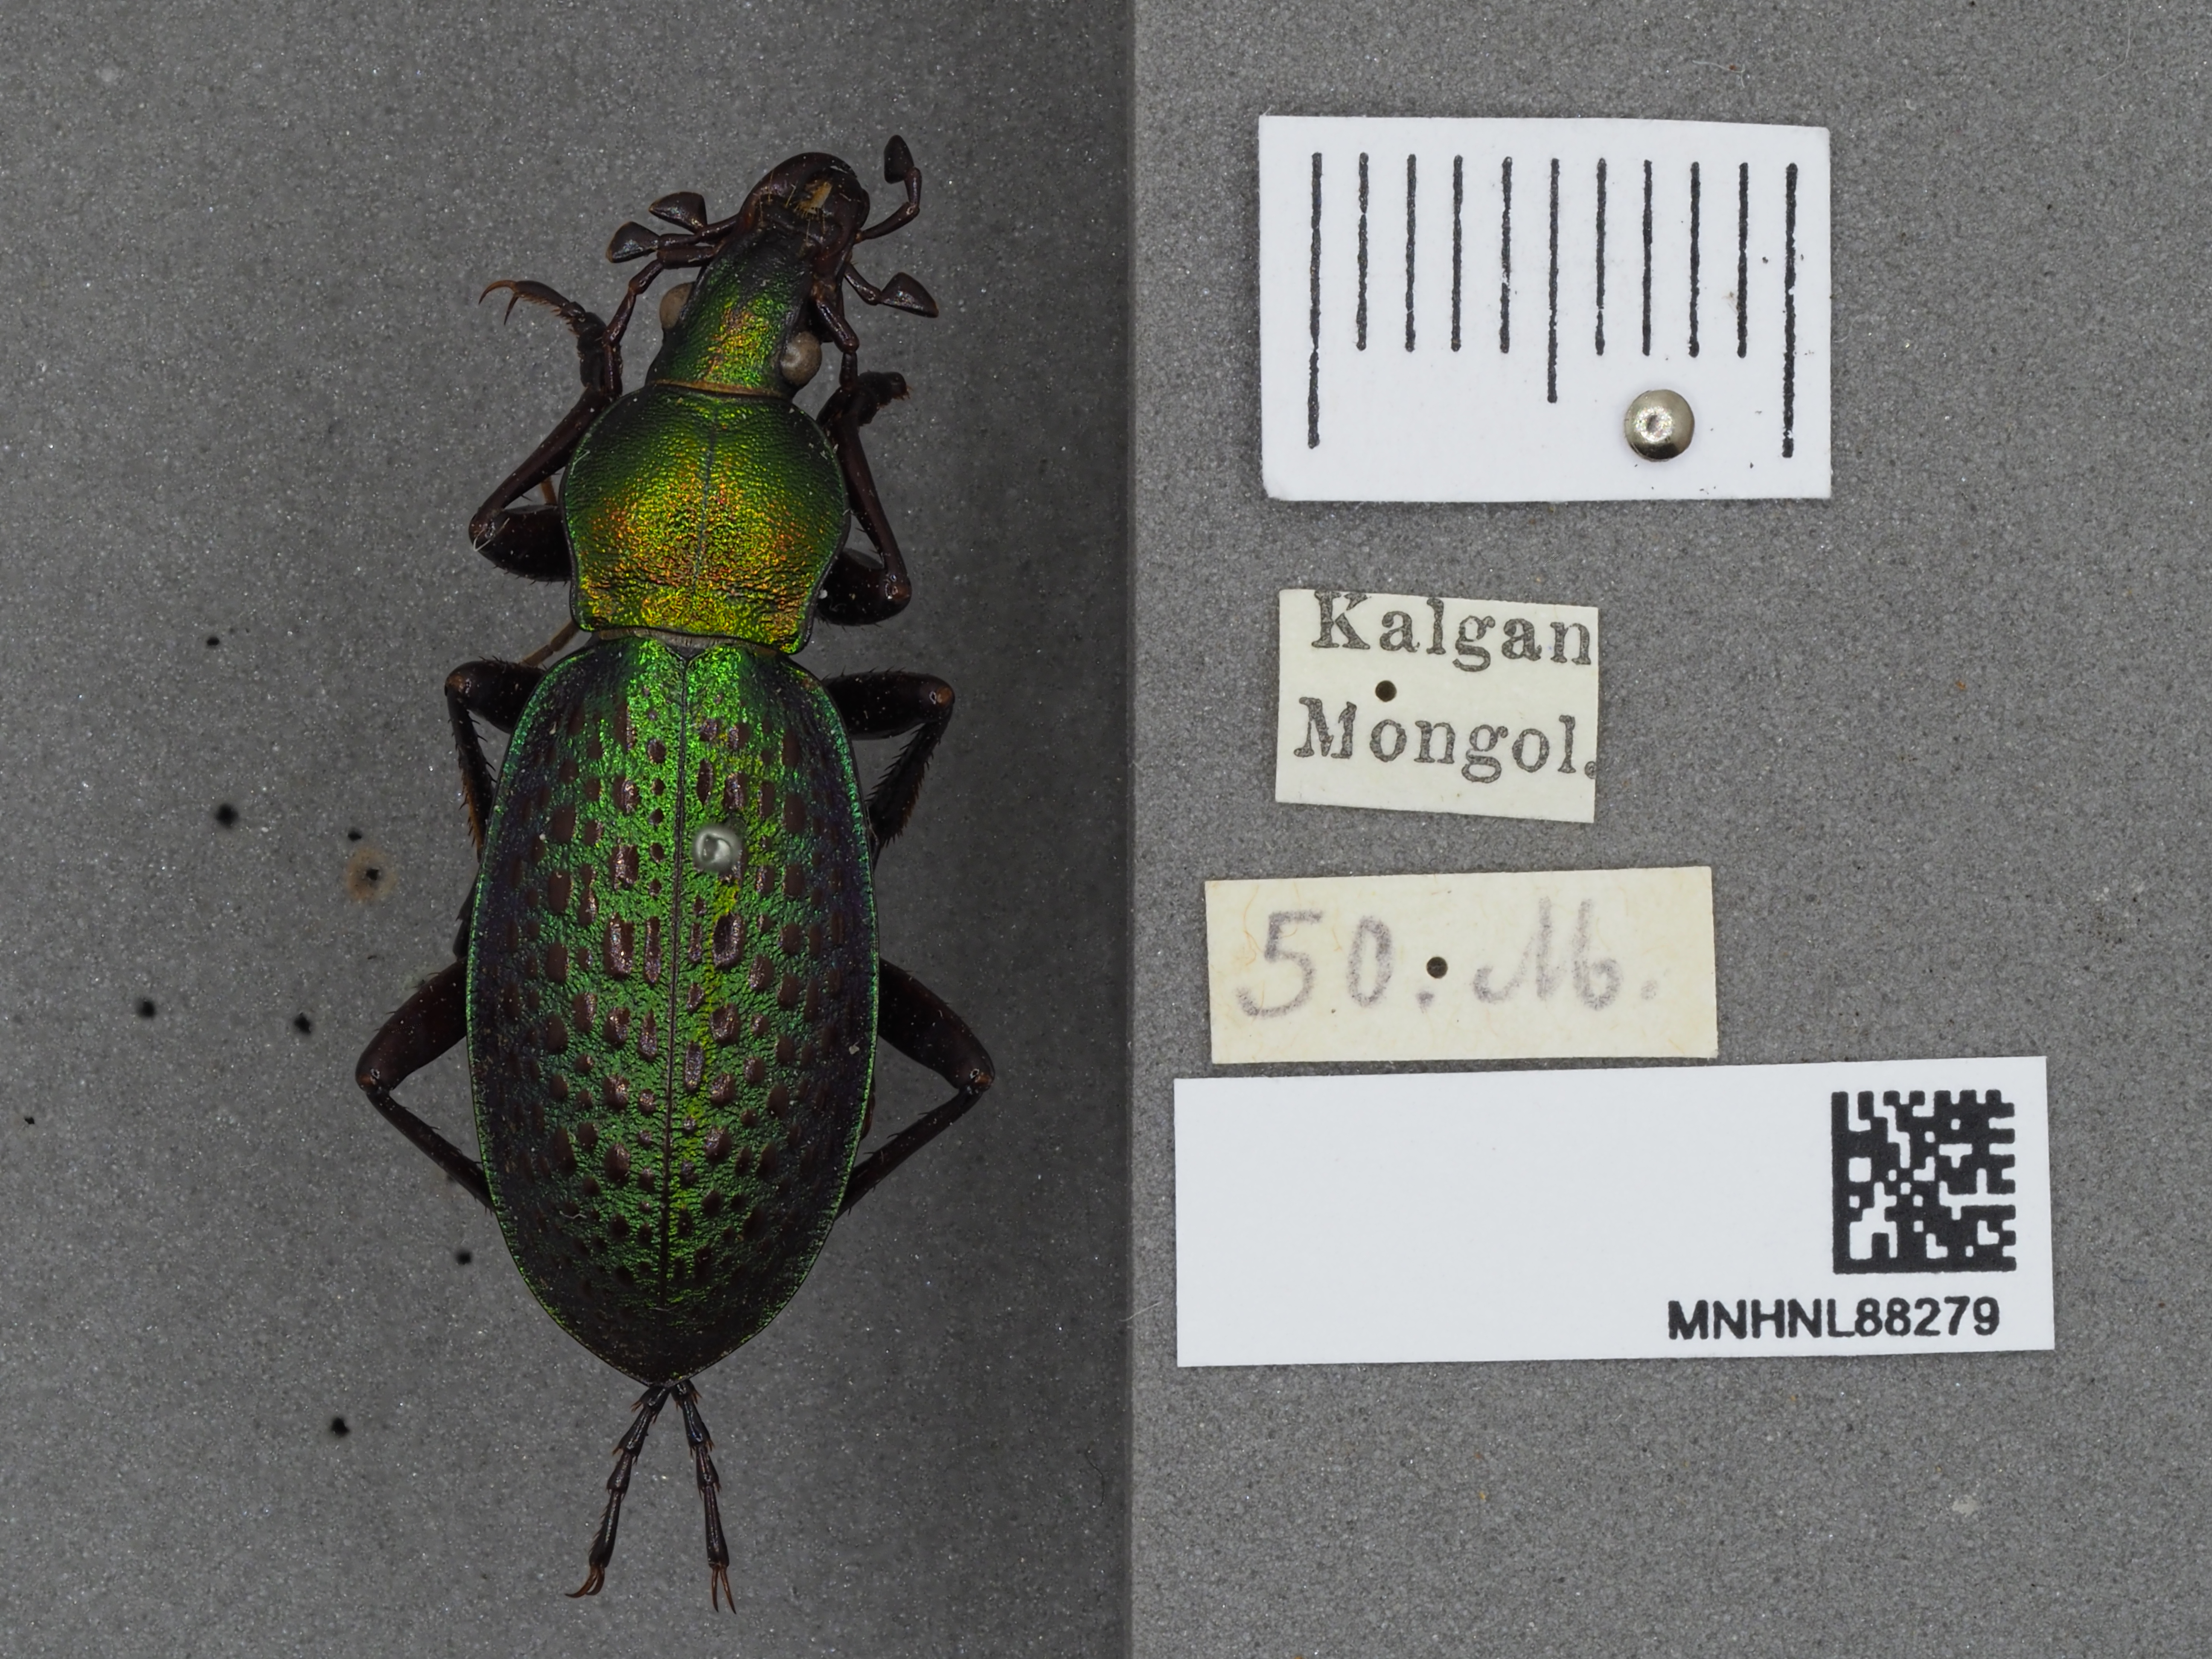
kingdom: Animalia
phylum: Arthropoda
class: Insecta
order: Coleoptera
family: Carabidae
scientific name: Carabidae
